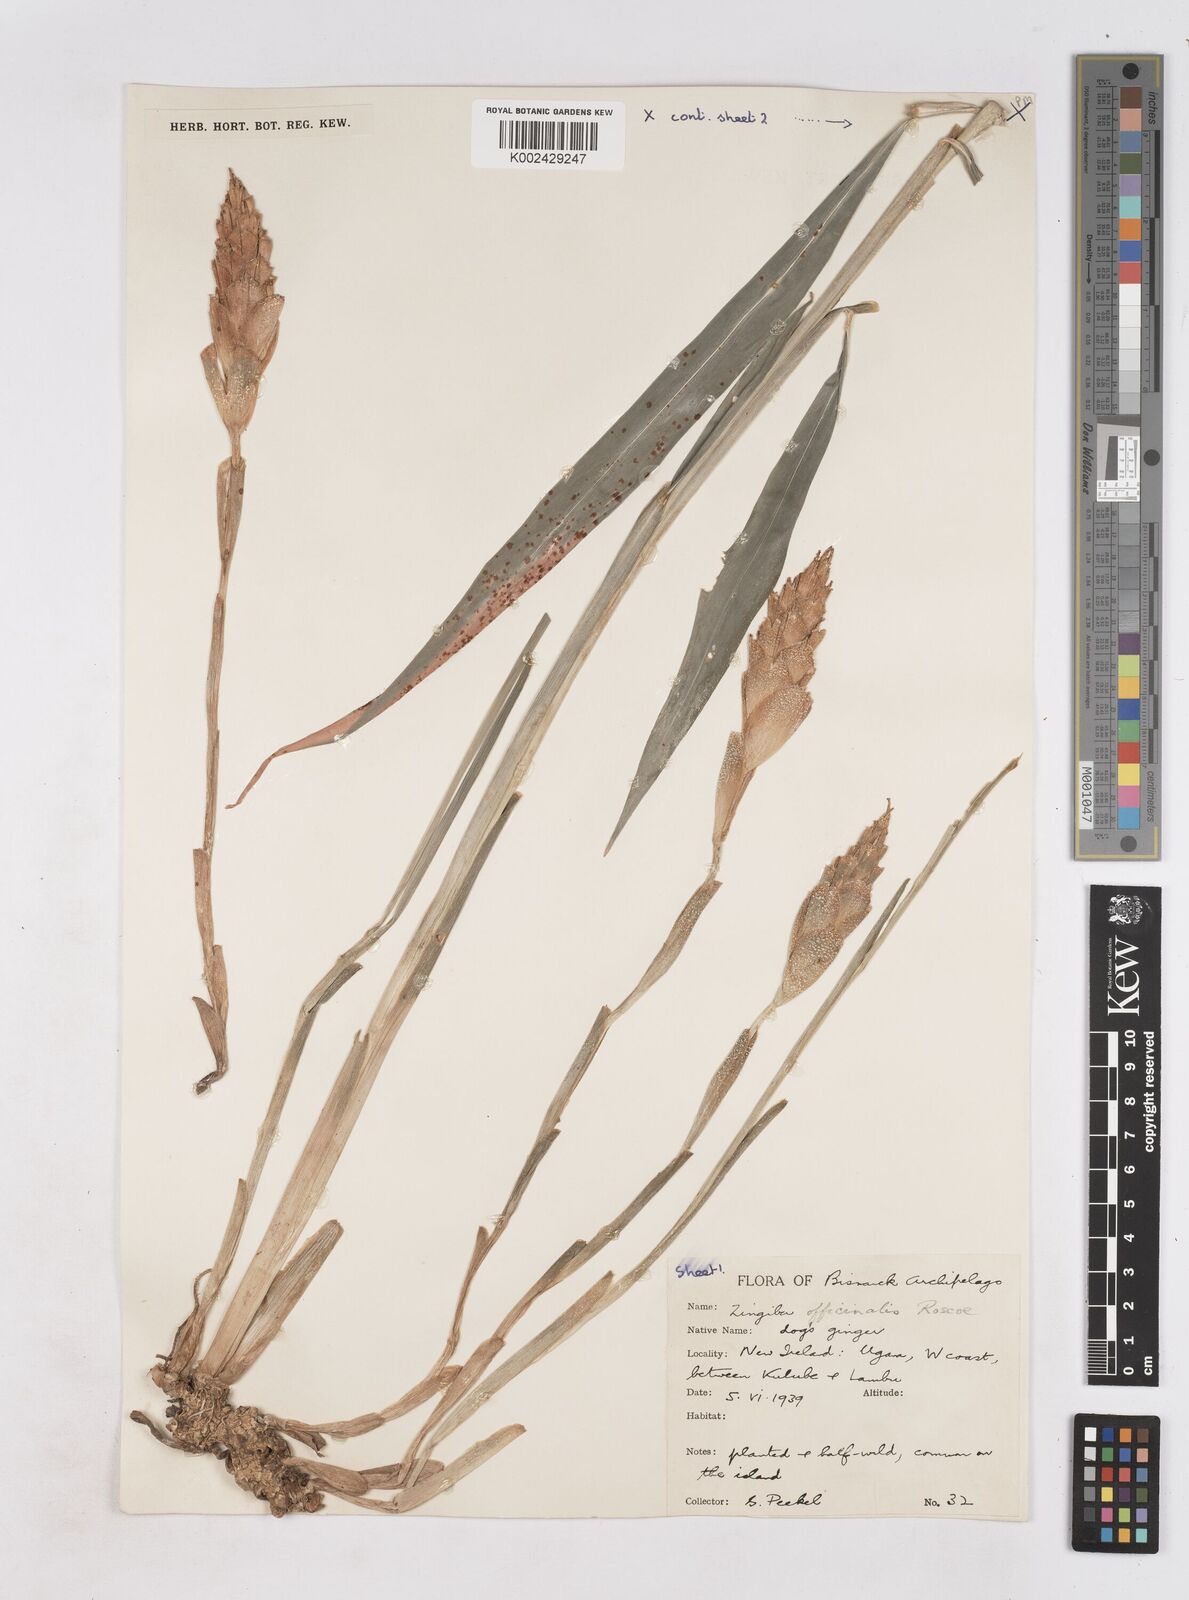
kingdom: Plantae
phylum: Tracheophyta
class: Liliopsida
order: Zingiberales
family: Zingiberaceae
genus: Zingiber
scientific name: Zingiber officinale
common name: Ginger
